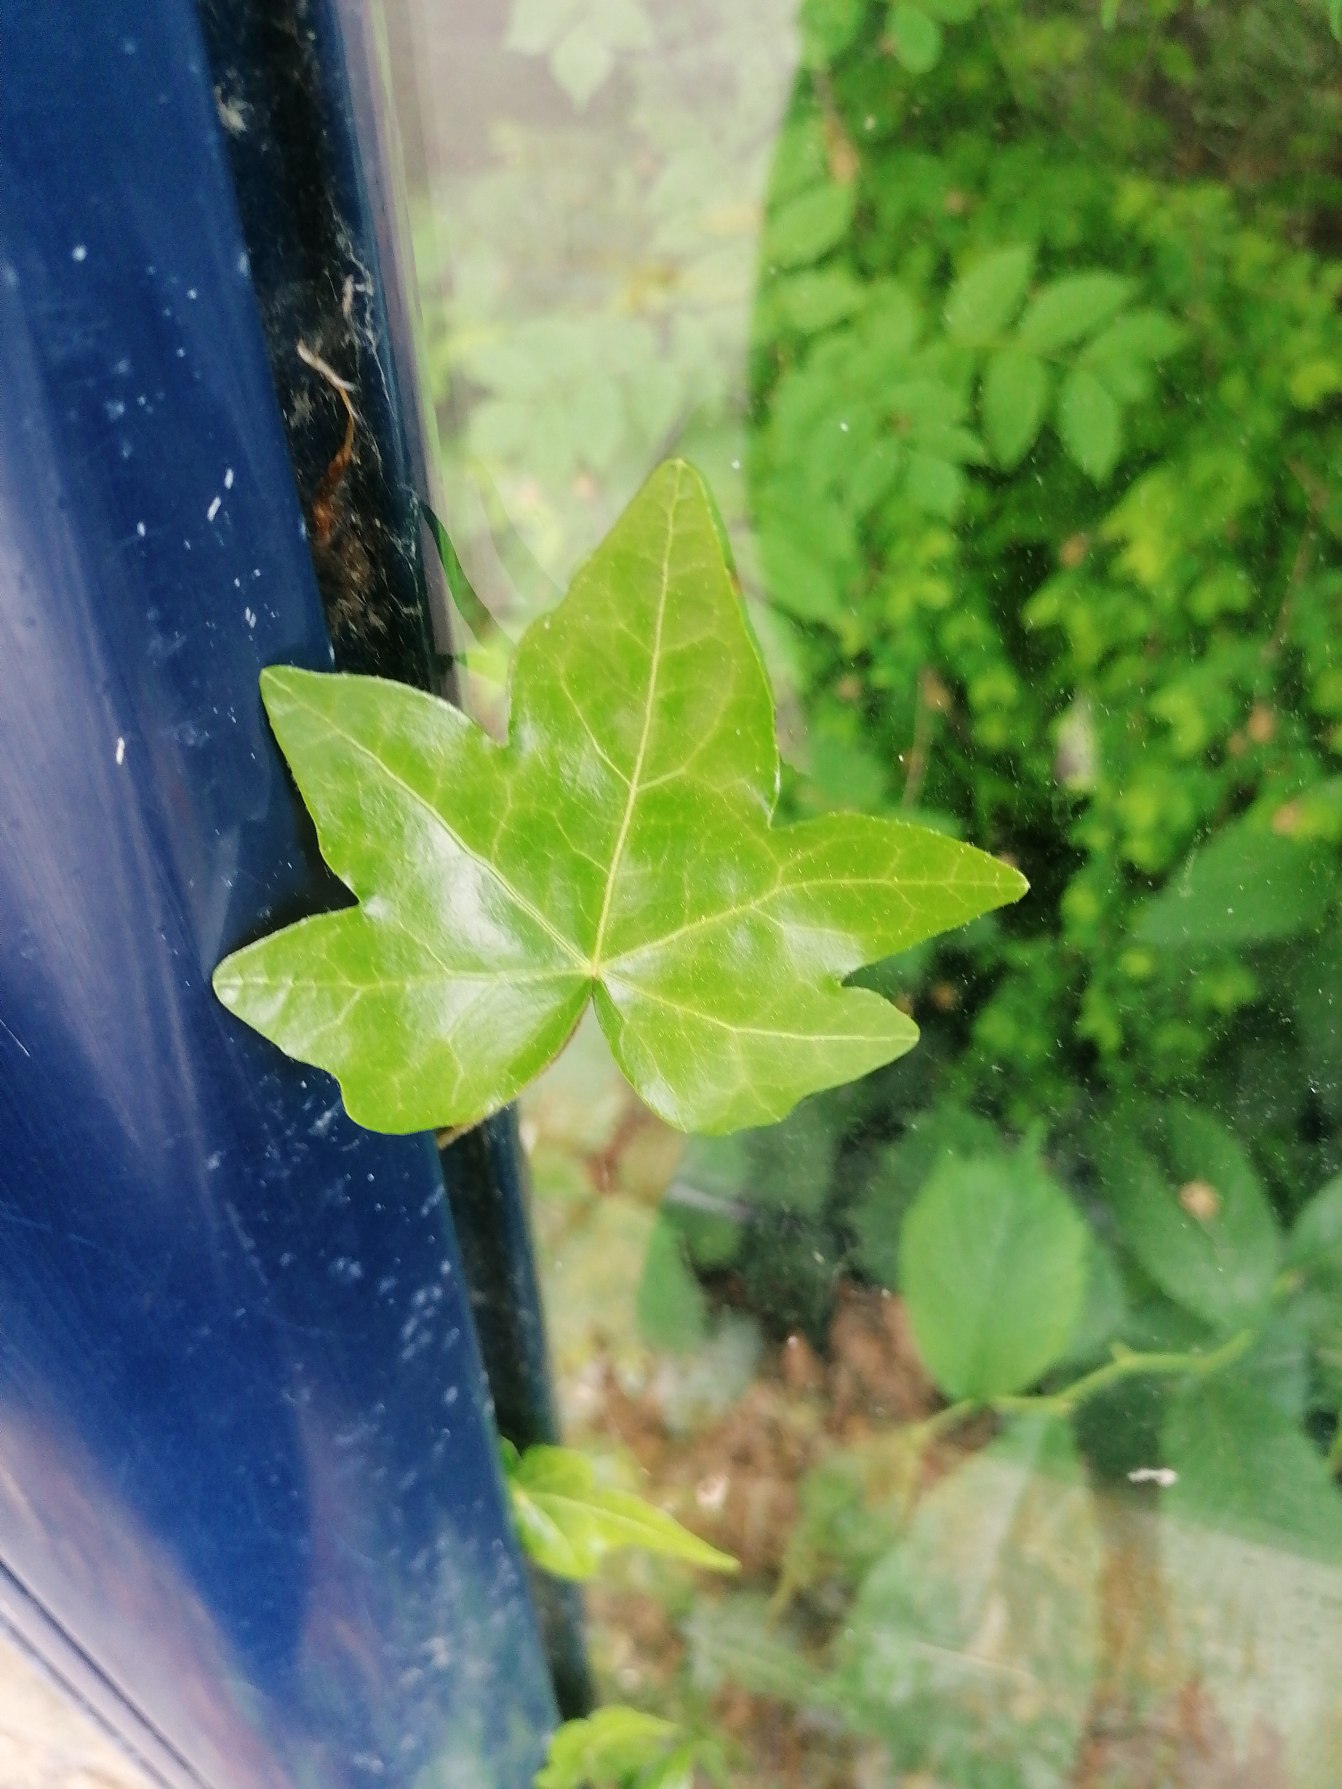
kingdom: Plantae
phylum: Tracheophyta
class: Magnoliopsida
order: Apiales
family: Araliaceae
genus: Hedera
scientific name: Hedera helix
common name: Vedbend
